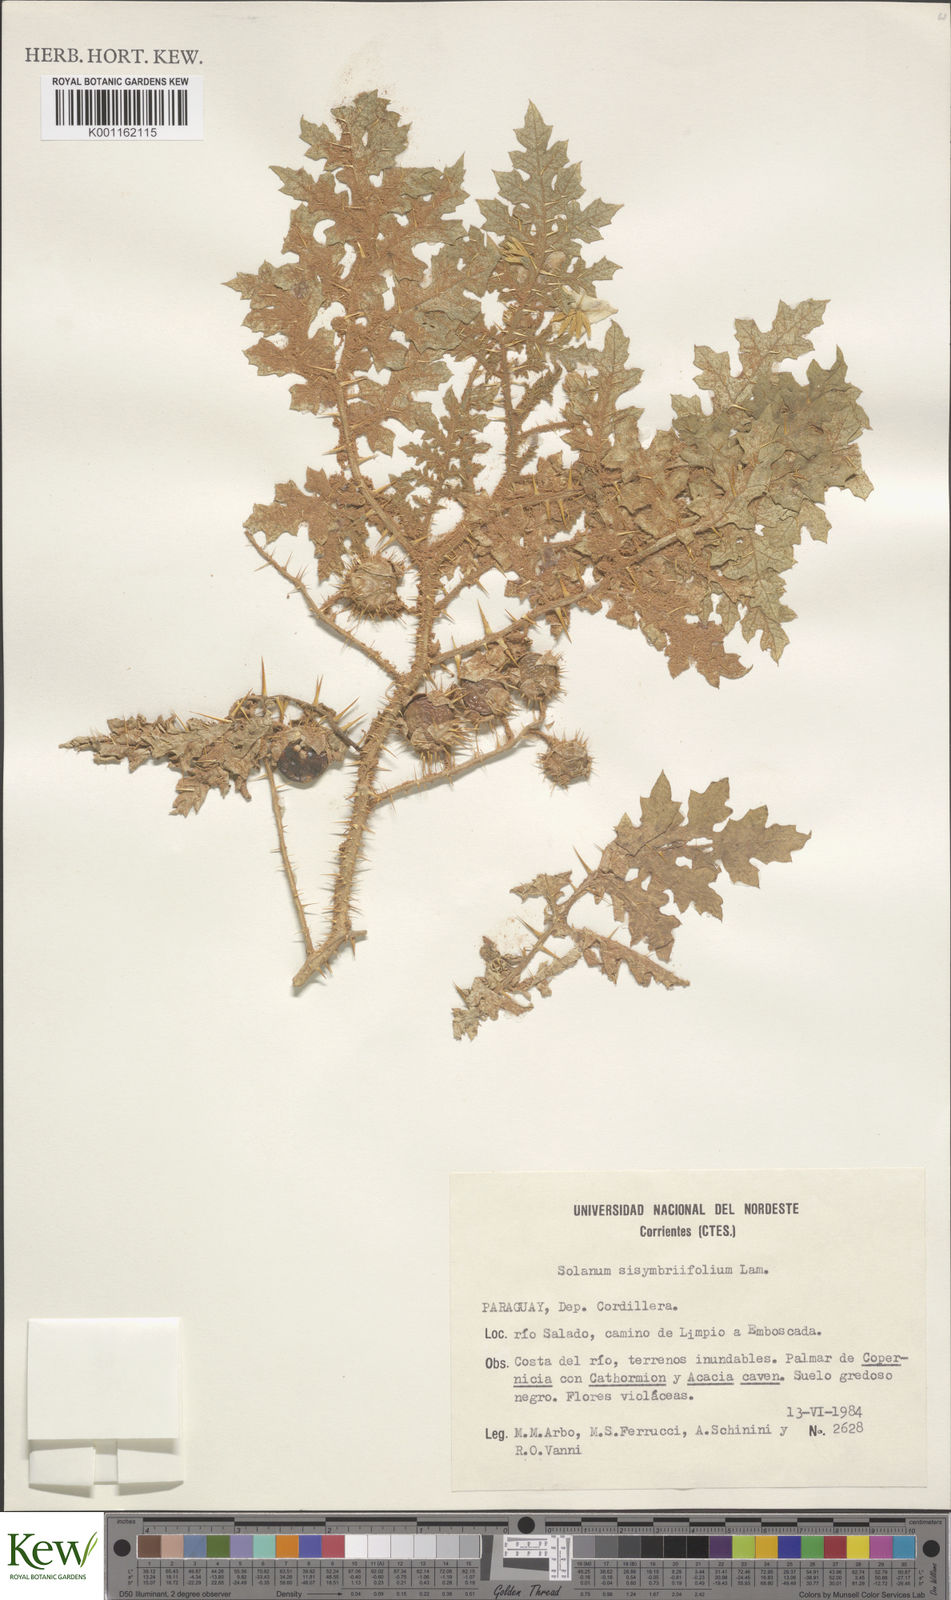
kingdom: Plantae
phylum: Tracheophyta
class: Magnoliopsida
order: Solanales
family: Solanaceae
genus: Solanum
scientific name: Solanum sisymbriifolium
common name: Red buffalo-bur
